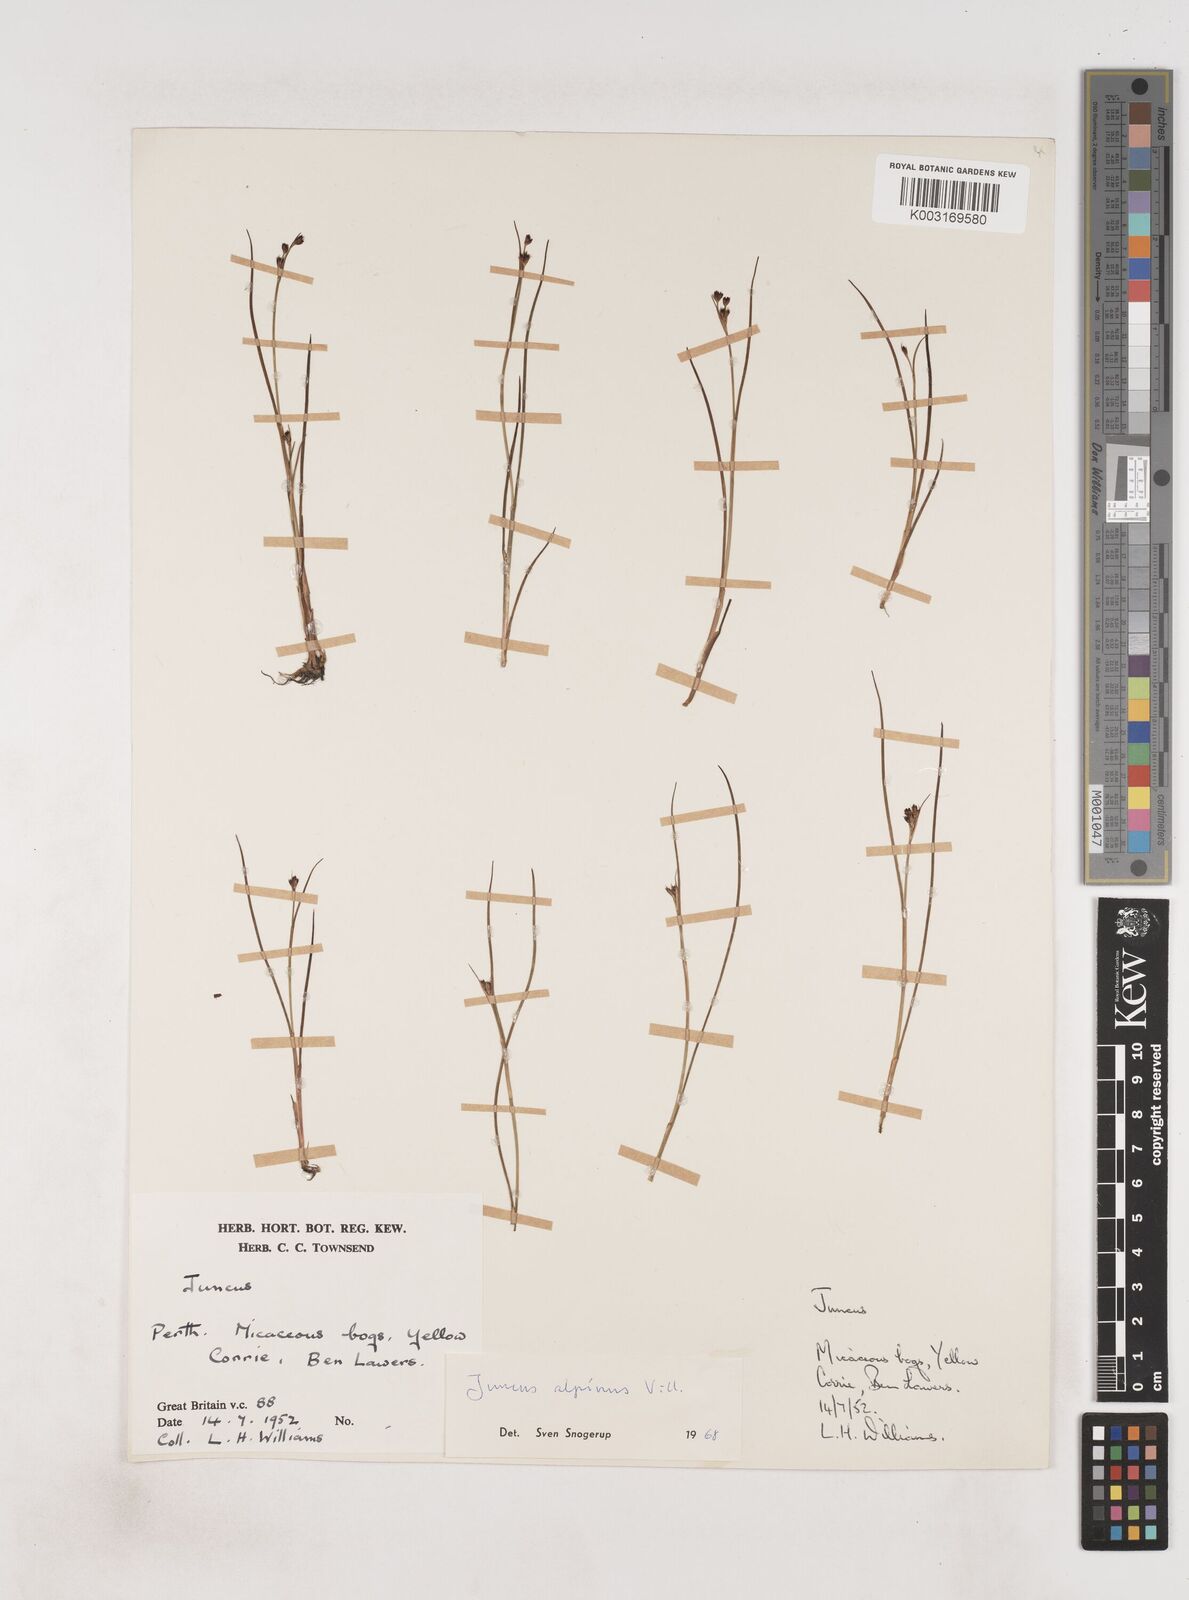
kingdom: Plantae
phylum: Tracheophyta
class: Liliopsida
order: Poales
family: Juncaceae
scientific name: Juncaceae
